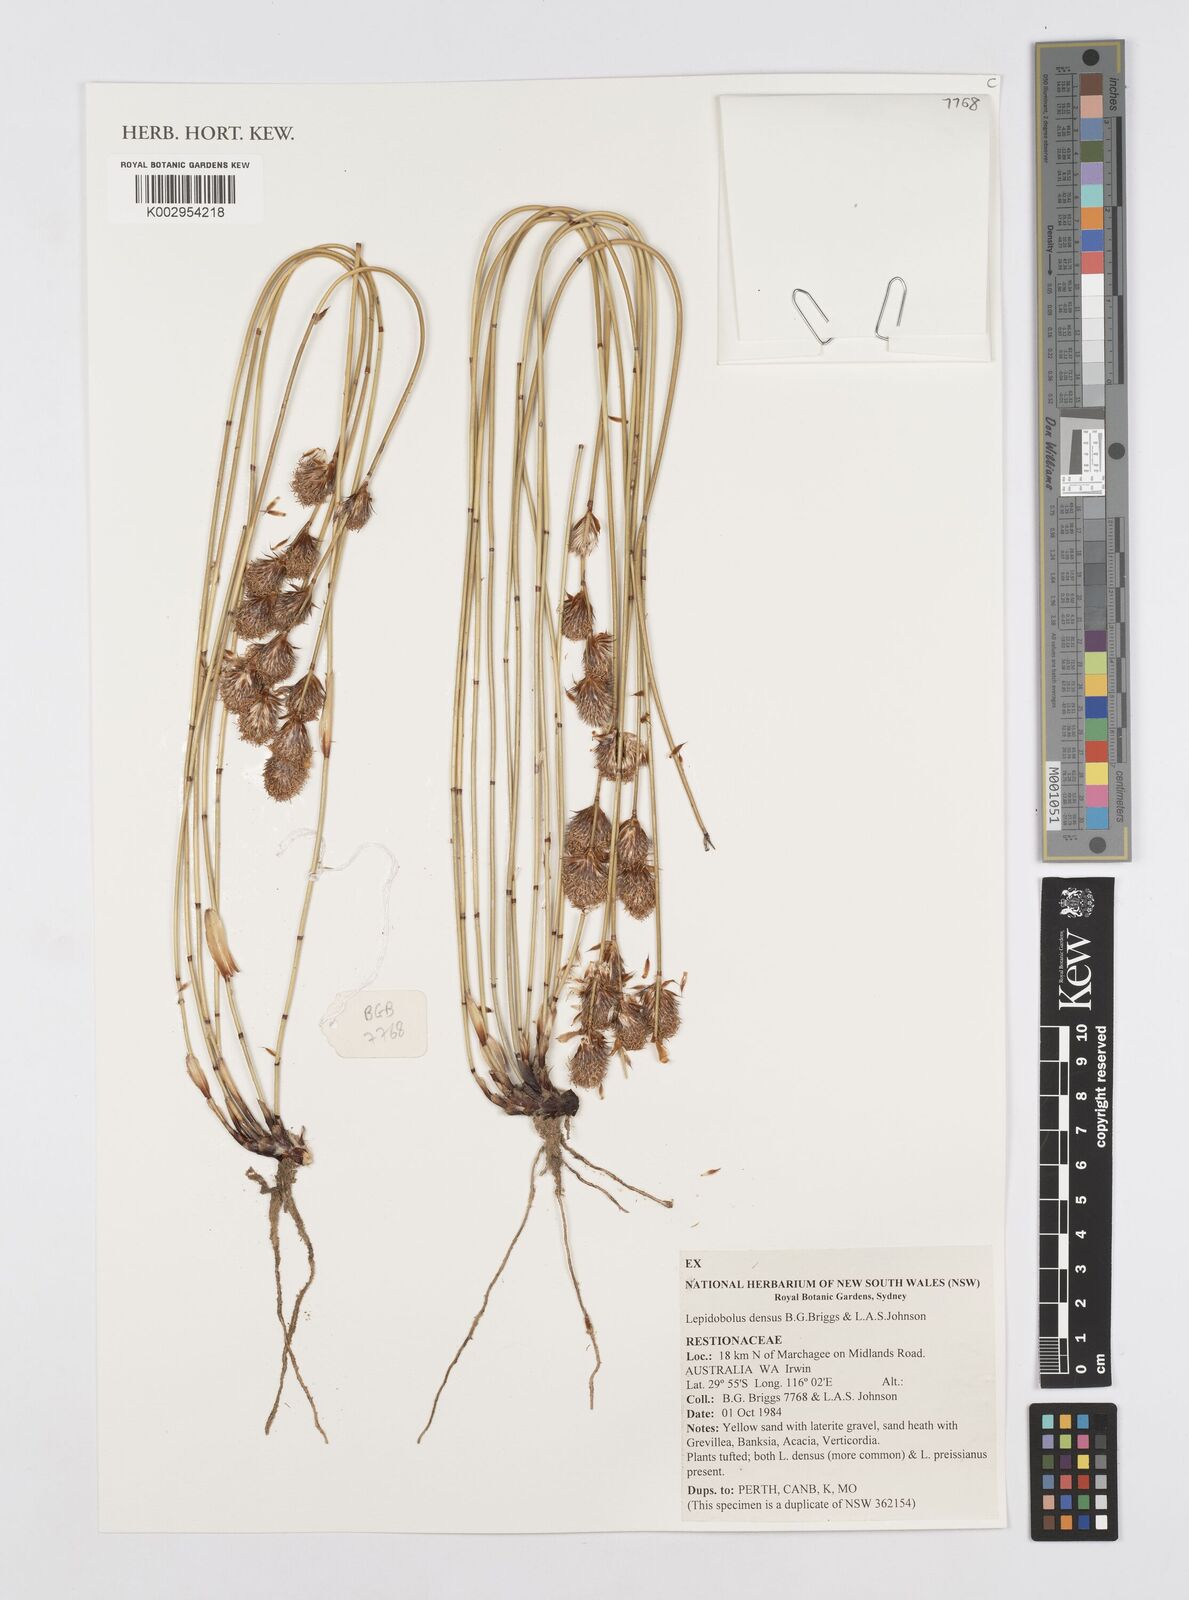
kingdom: Plantae
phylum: Tracheophyta
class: Liliopsida
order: Poales
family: Restionaceae
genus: Leptocarpus
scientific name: Leptocarpus
